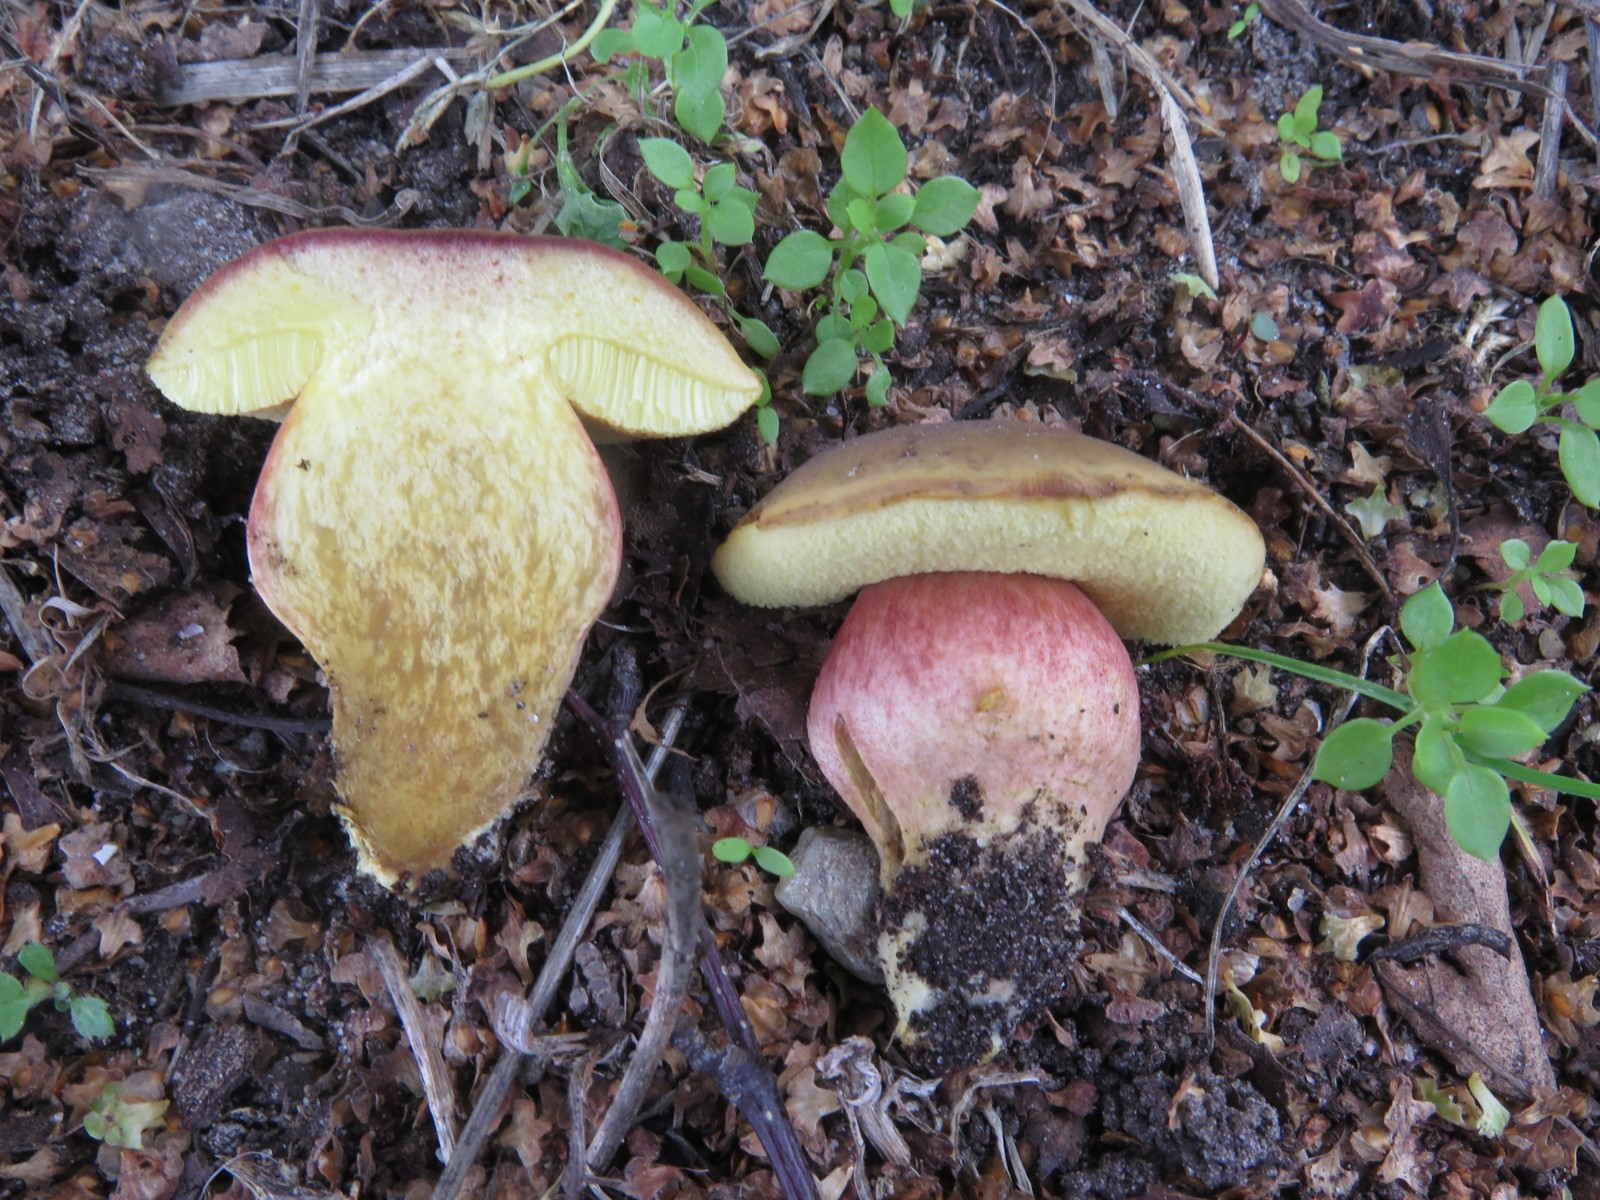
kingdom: Fungi
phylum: Basidiomycota
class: Agaricomycetes
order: Boletales
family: Boletaceae
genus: Xerocomellus
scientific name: Xerocomellus chrysenteron
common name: rødsprukken rørhat
